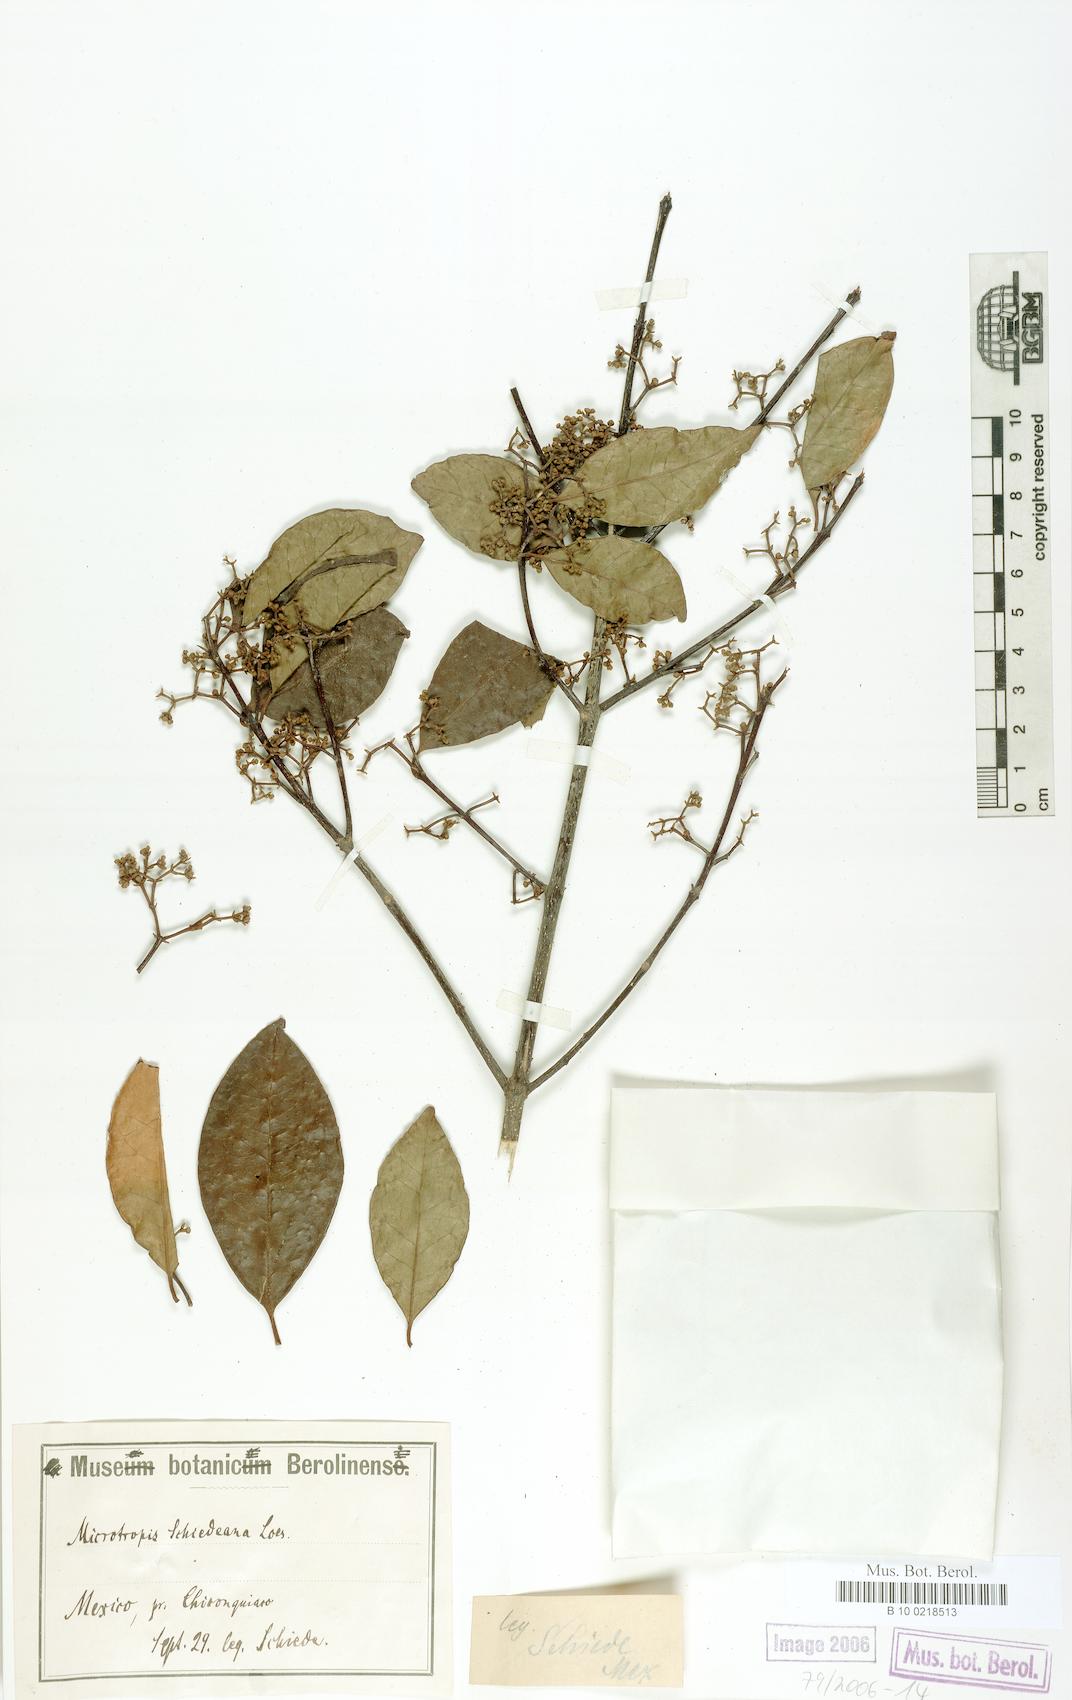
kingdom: Plantae
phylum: Tracheophyta
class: Magnoliopsida
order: Celastrales
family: Celastraceae
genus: Quetzalia
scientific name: Quetzalia schiedeana
